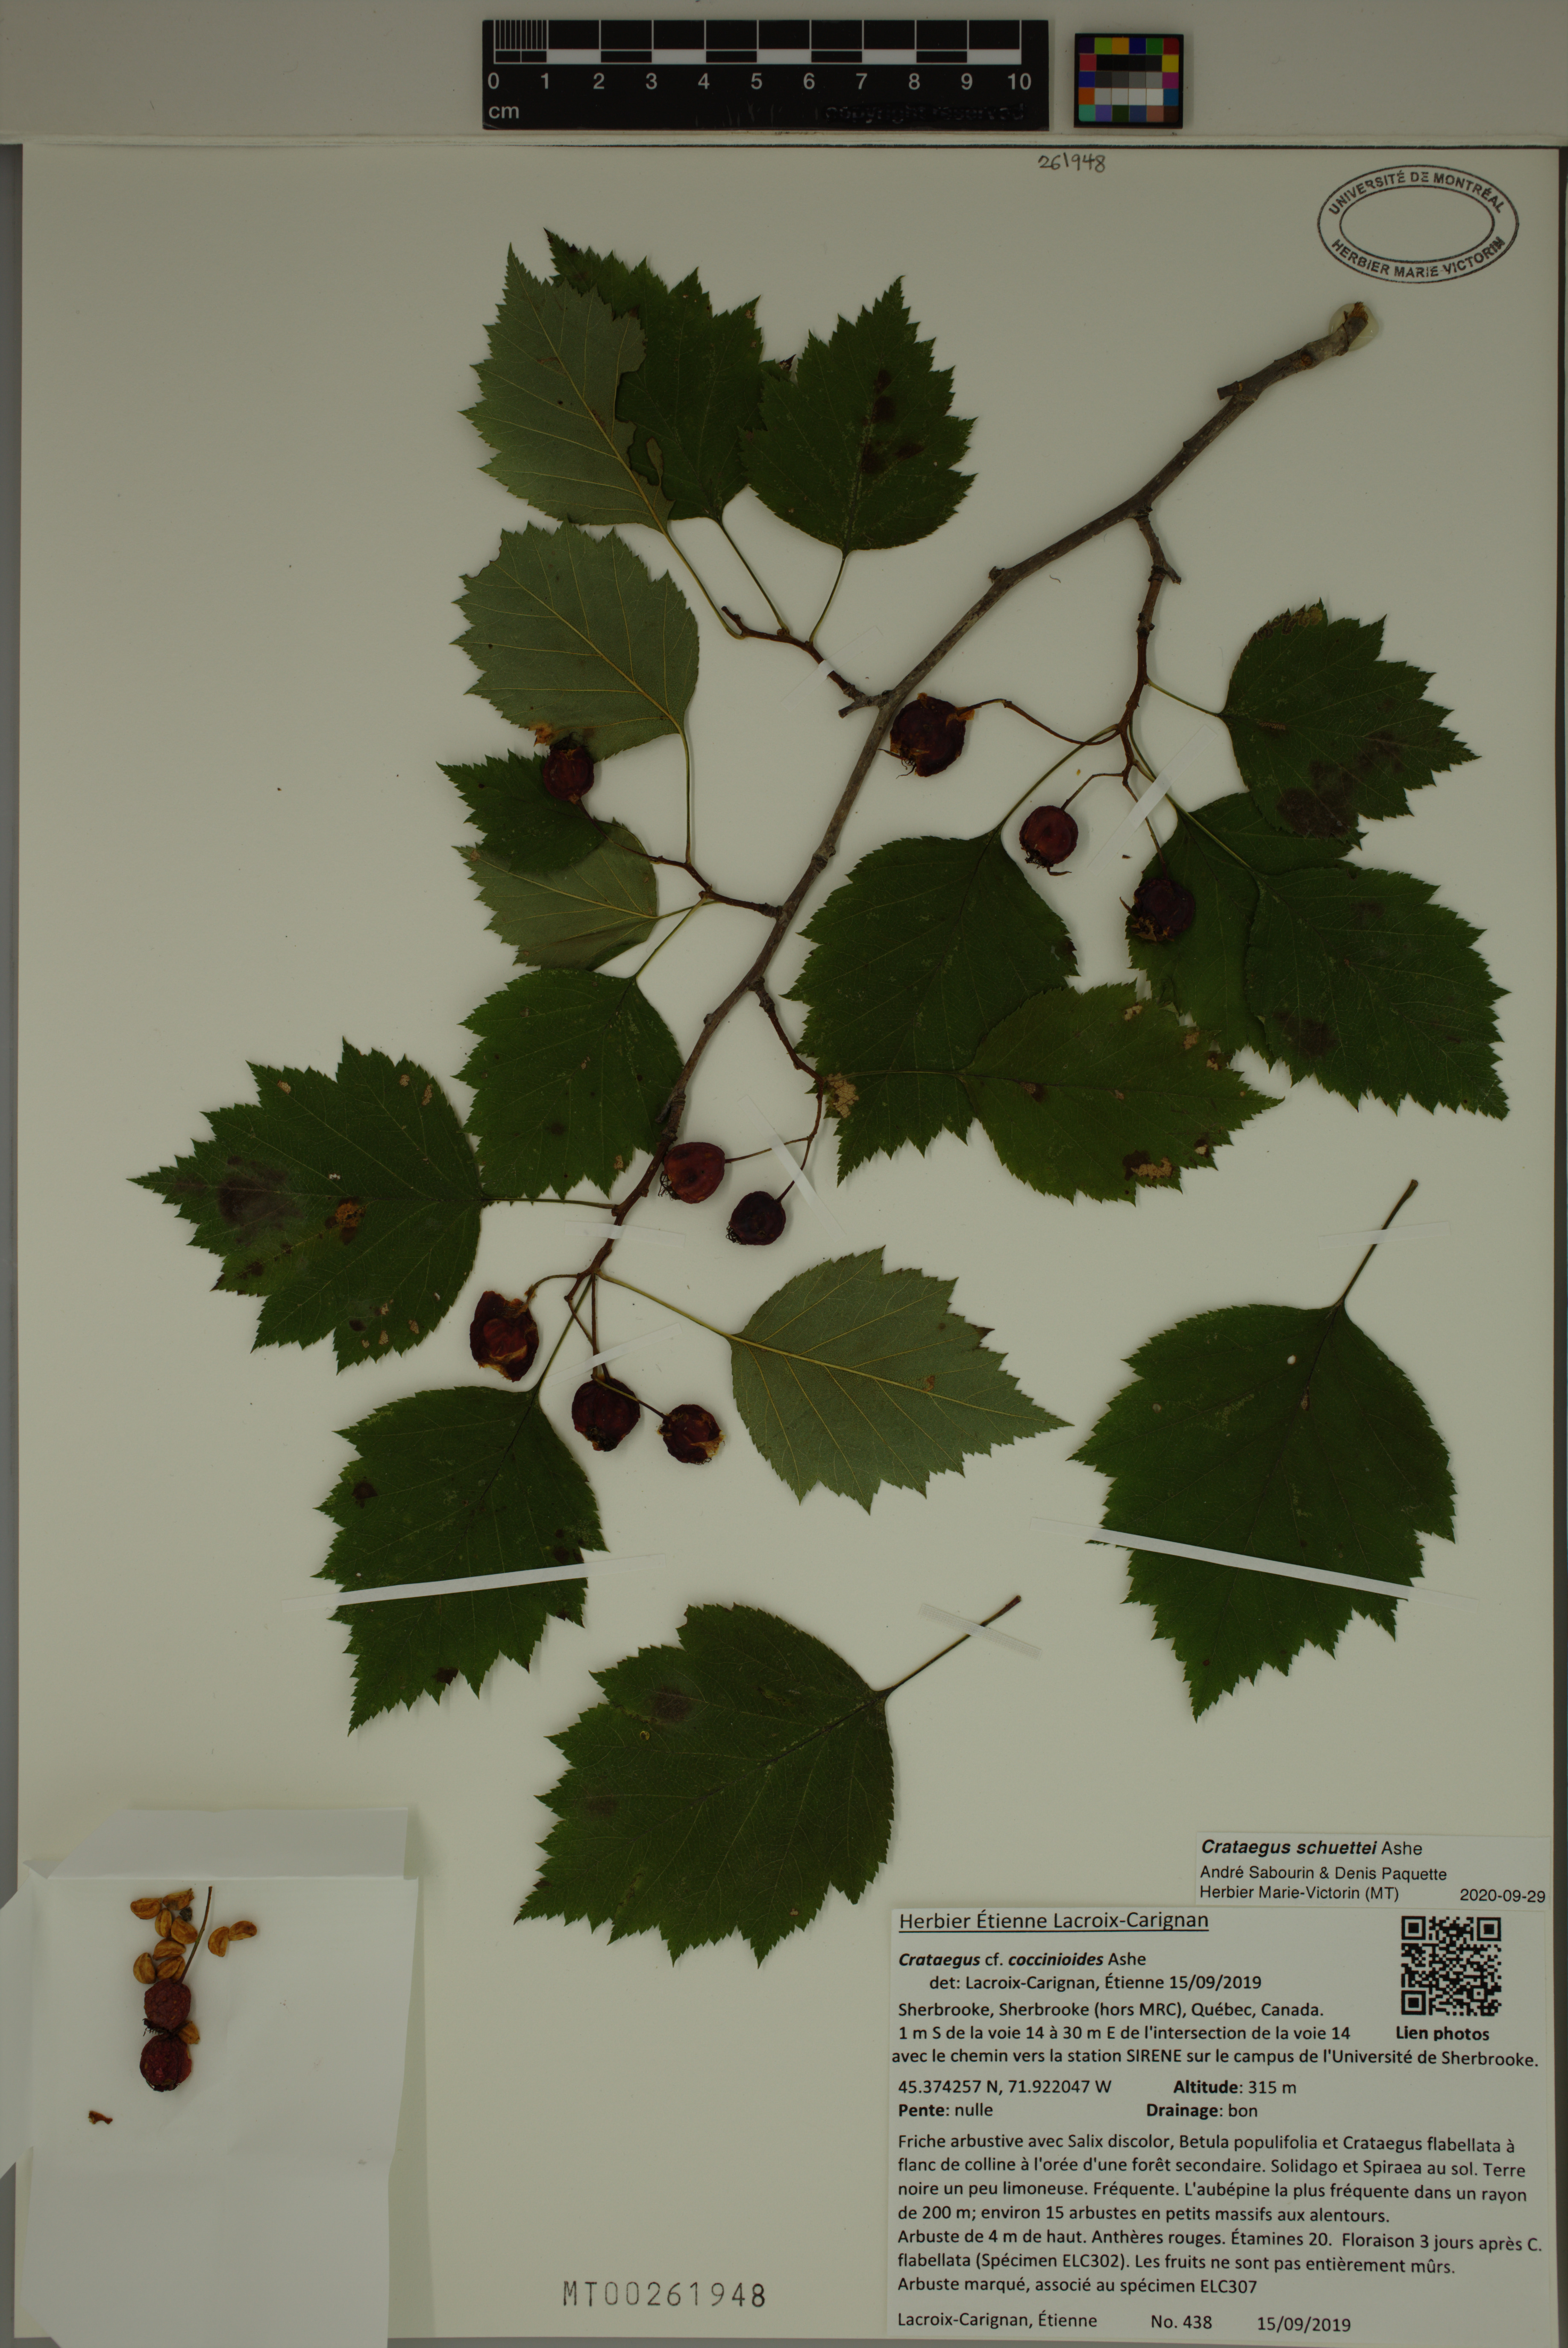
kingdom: Plantae
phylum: Tracheophyta
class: Magnoliopsida
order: Rosales
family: Rosaceae
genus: Crataegus
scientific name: Crataegus schuettei
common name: Schuette's hawthorn
